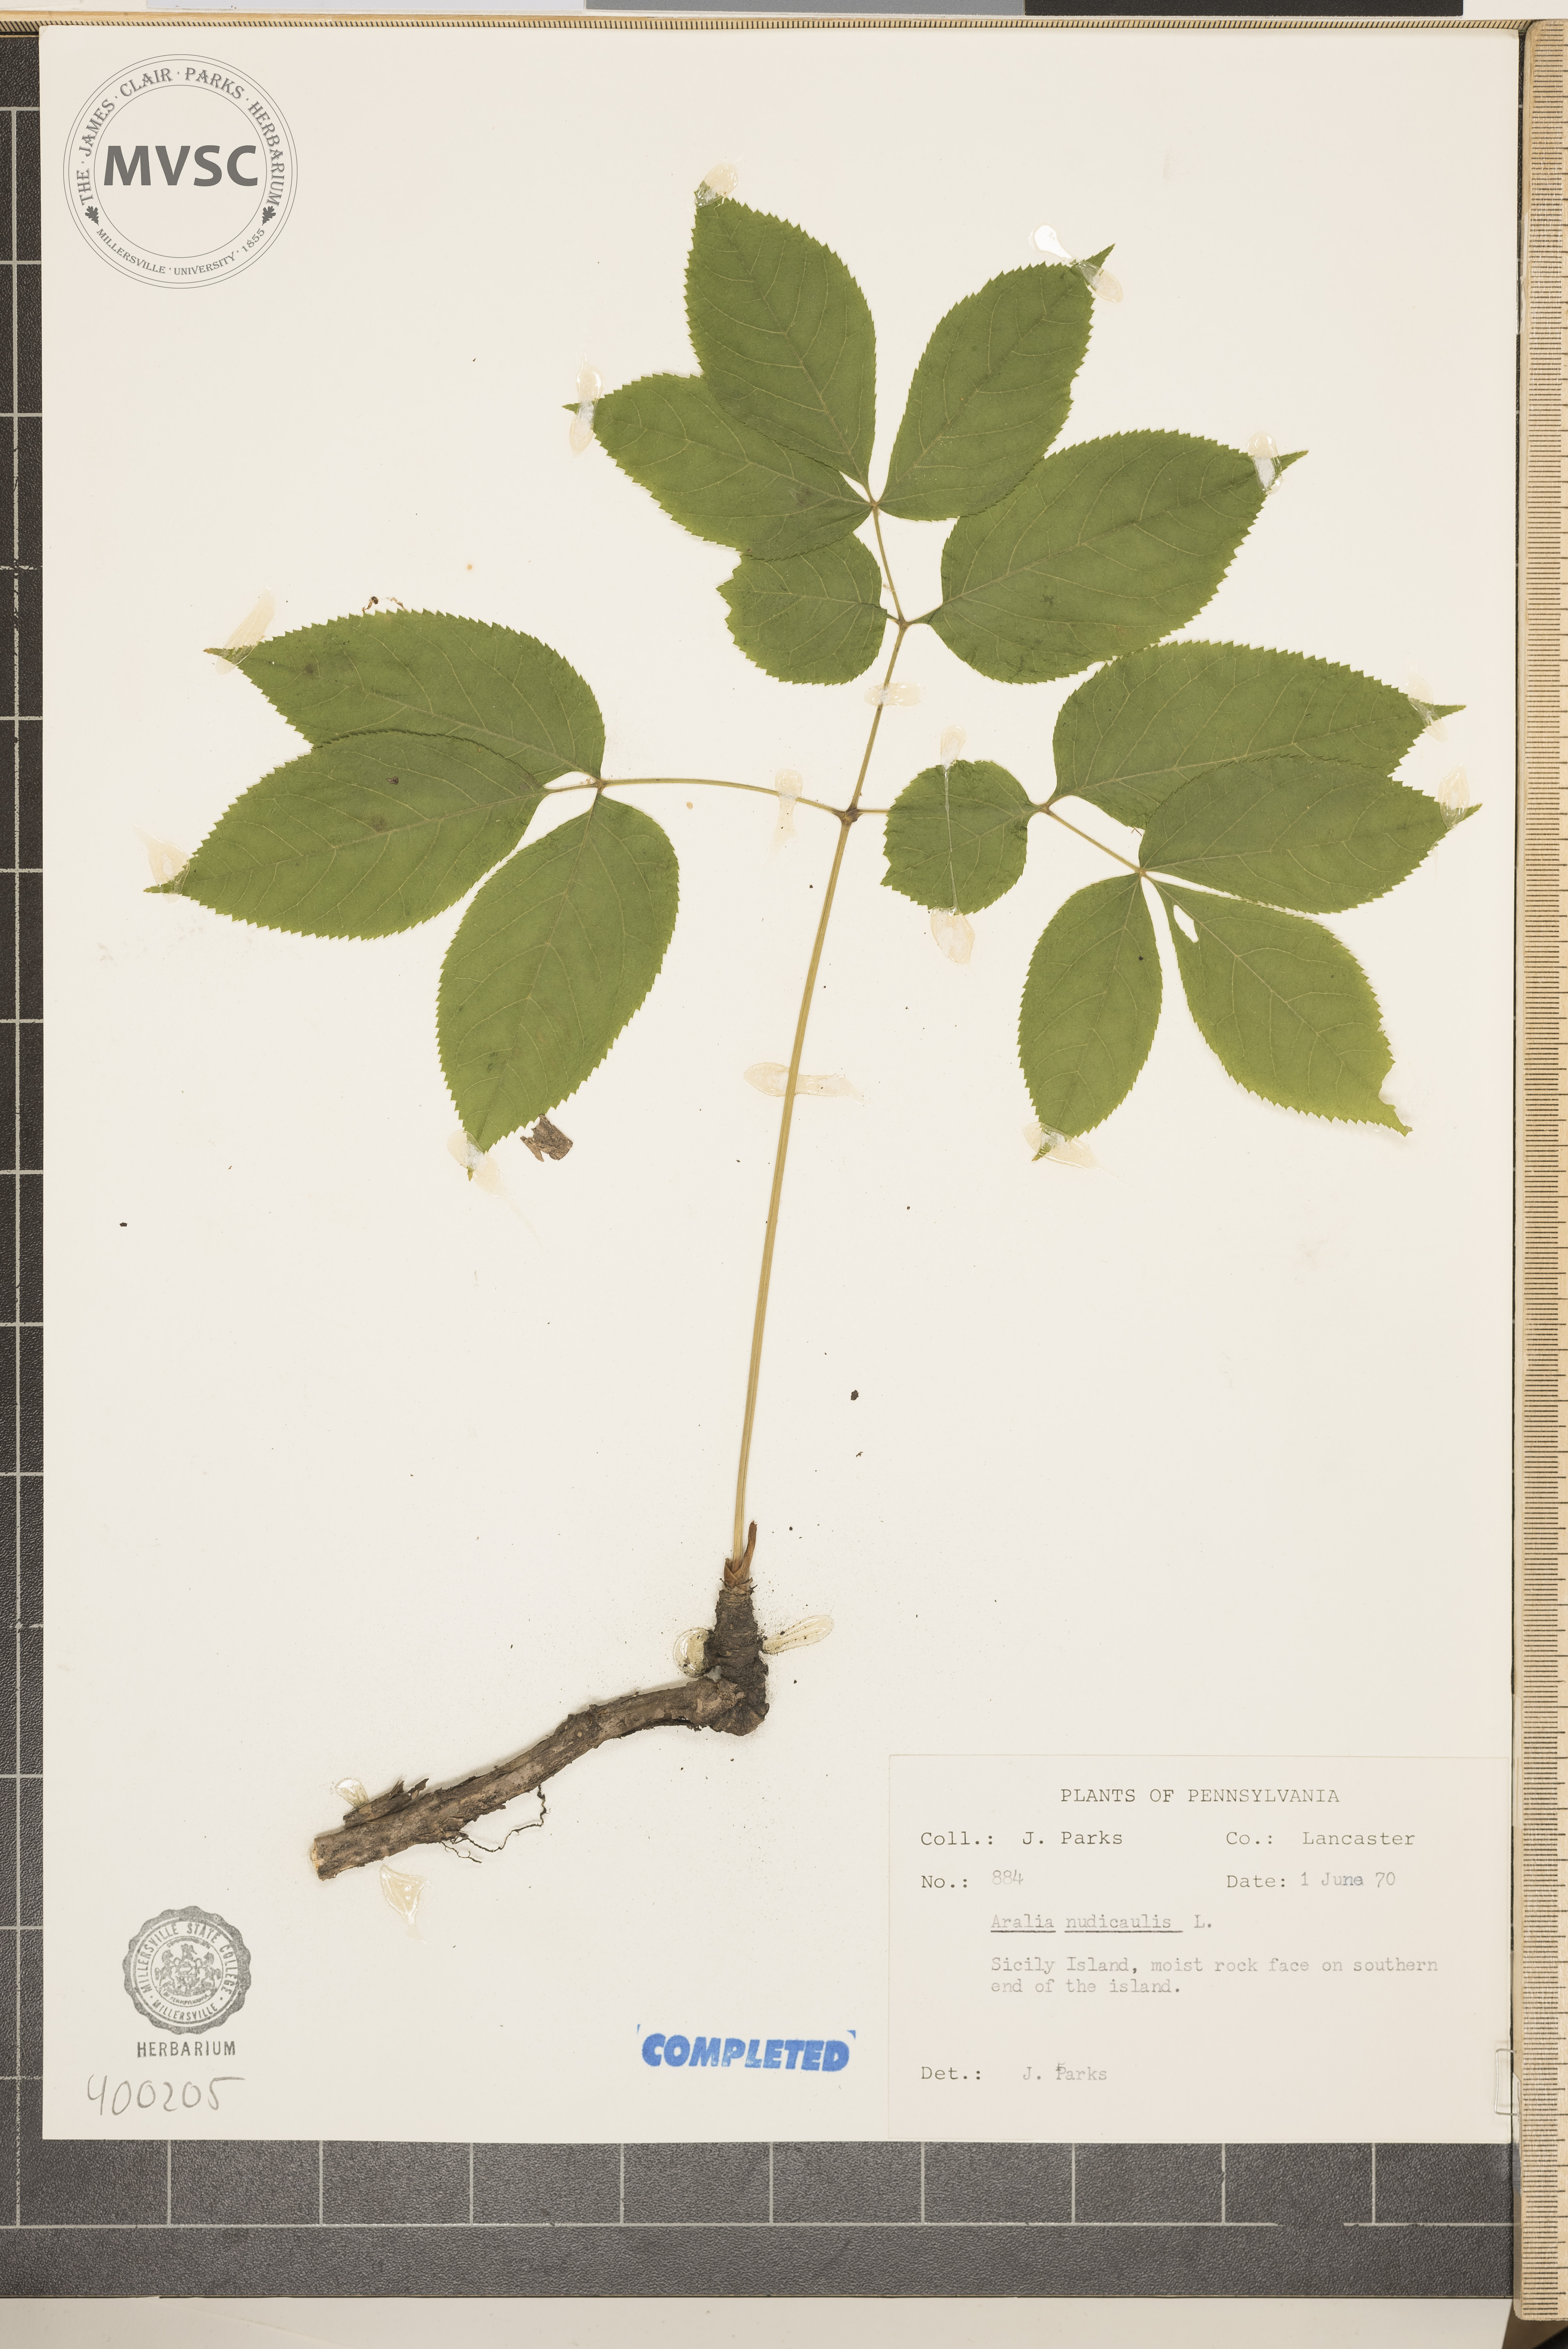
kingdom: Plantae
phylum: Tracheophyta
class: Magnoliopsida
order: Apiales
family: Araliaceae
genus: Aralia
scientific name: Aralia nudicaulis
